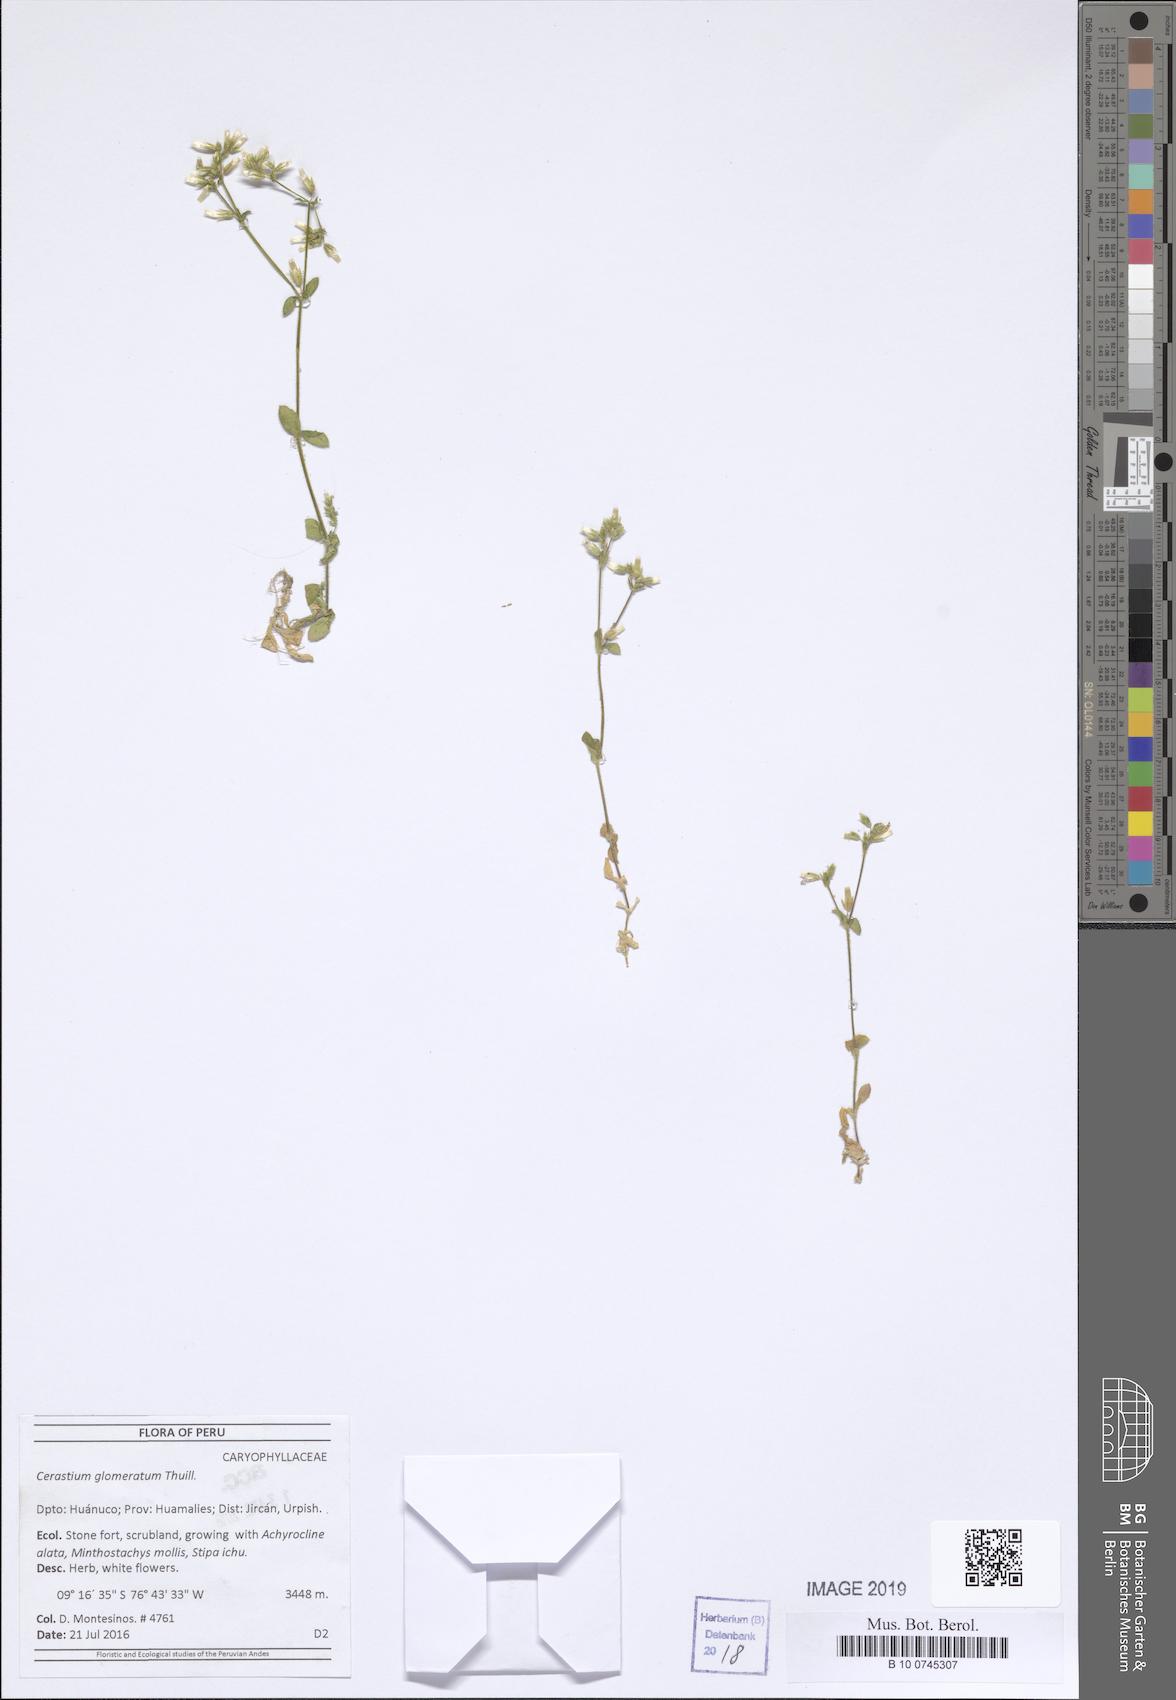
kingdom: Plantae
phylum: Tracheophyta
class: Magnoliopsida
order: Caryophyllales
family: Caryophyllaceae
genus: Cerastium
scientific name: Cerastium glomeratum
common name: Sticky chickweed
